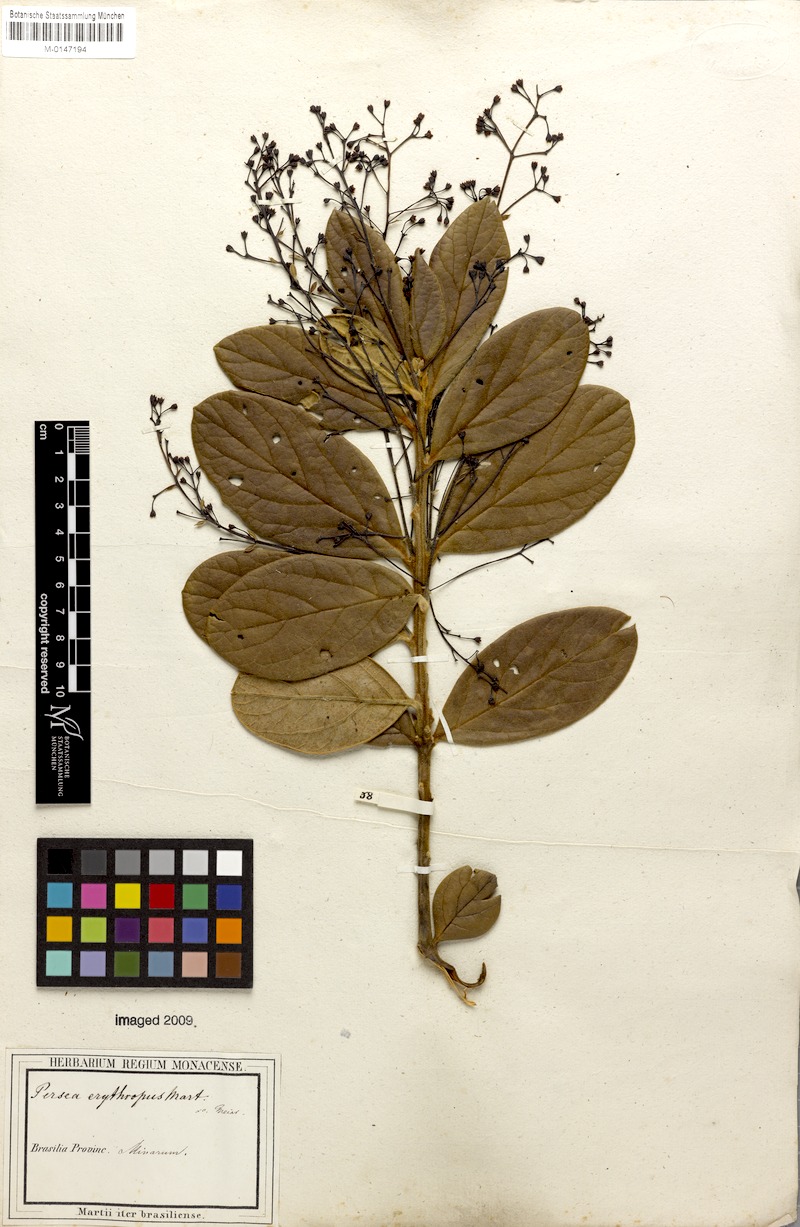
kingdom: Plantae
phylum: Tracheophyta
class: Magnoliopsida
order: Laurales
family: Lauraceae
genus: Aiouea
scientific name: Aiouea erythropus
